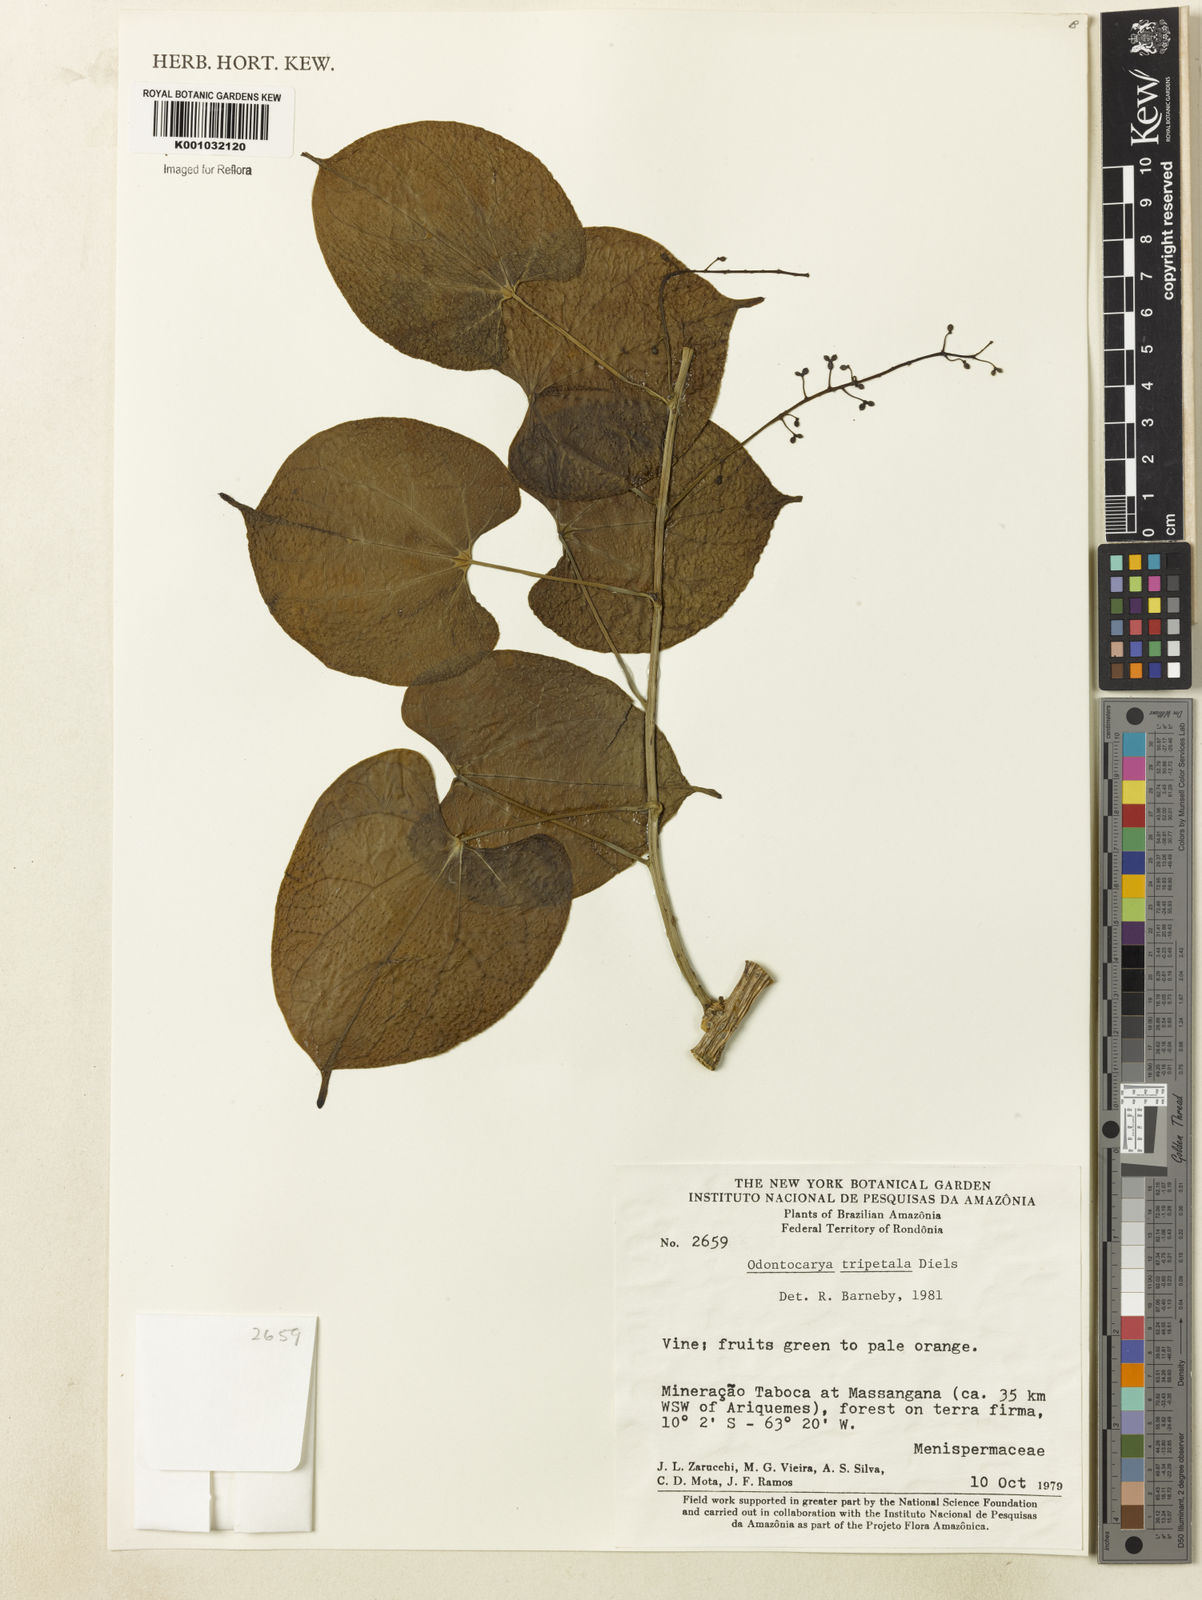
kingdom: Plantae
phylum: Tracheophyta
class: Magnoliopsida
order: Ranunculales
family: Menispermaceae
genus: Odontocarya
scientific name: Odontocarya tripetala
